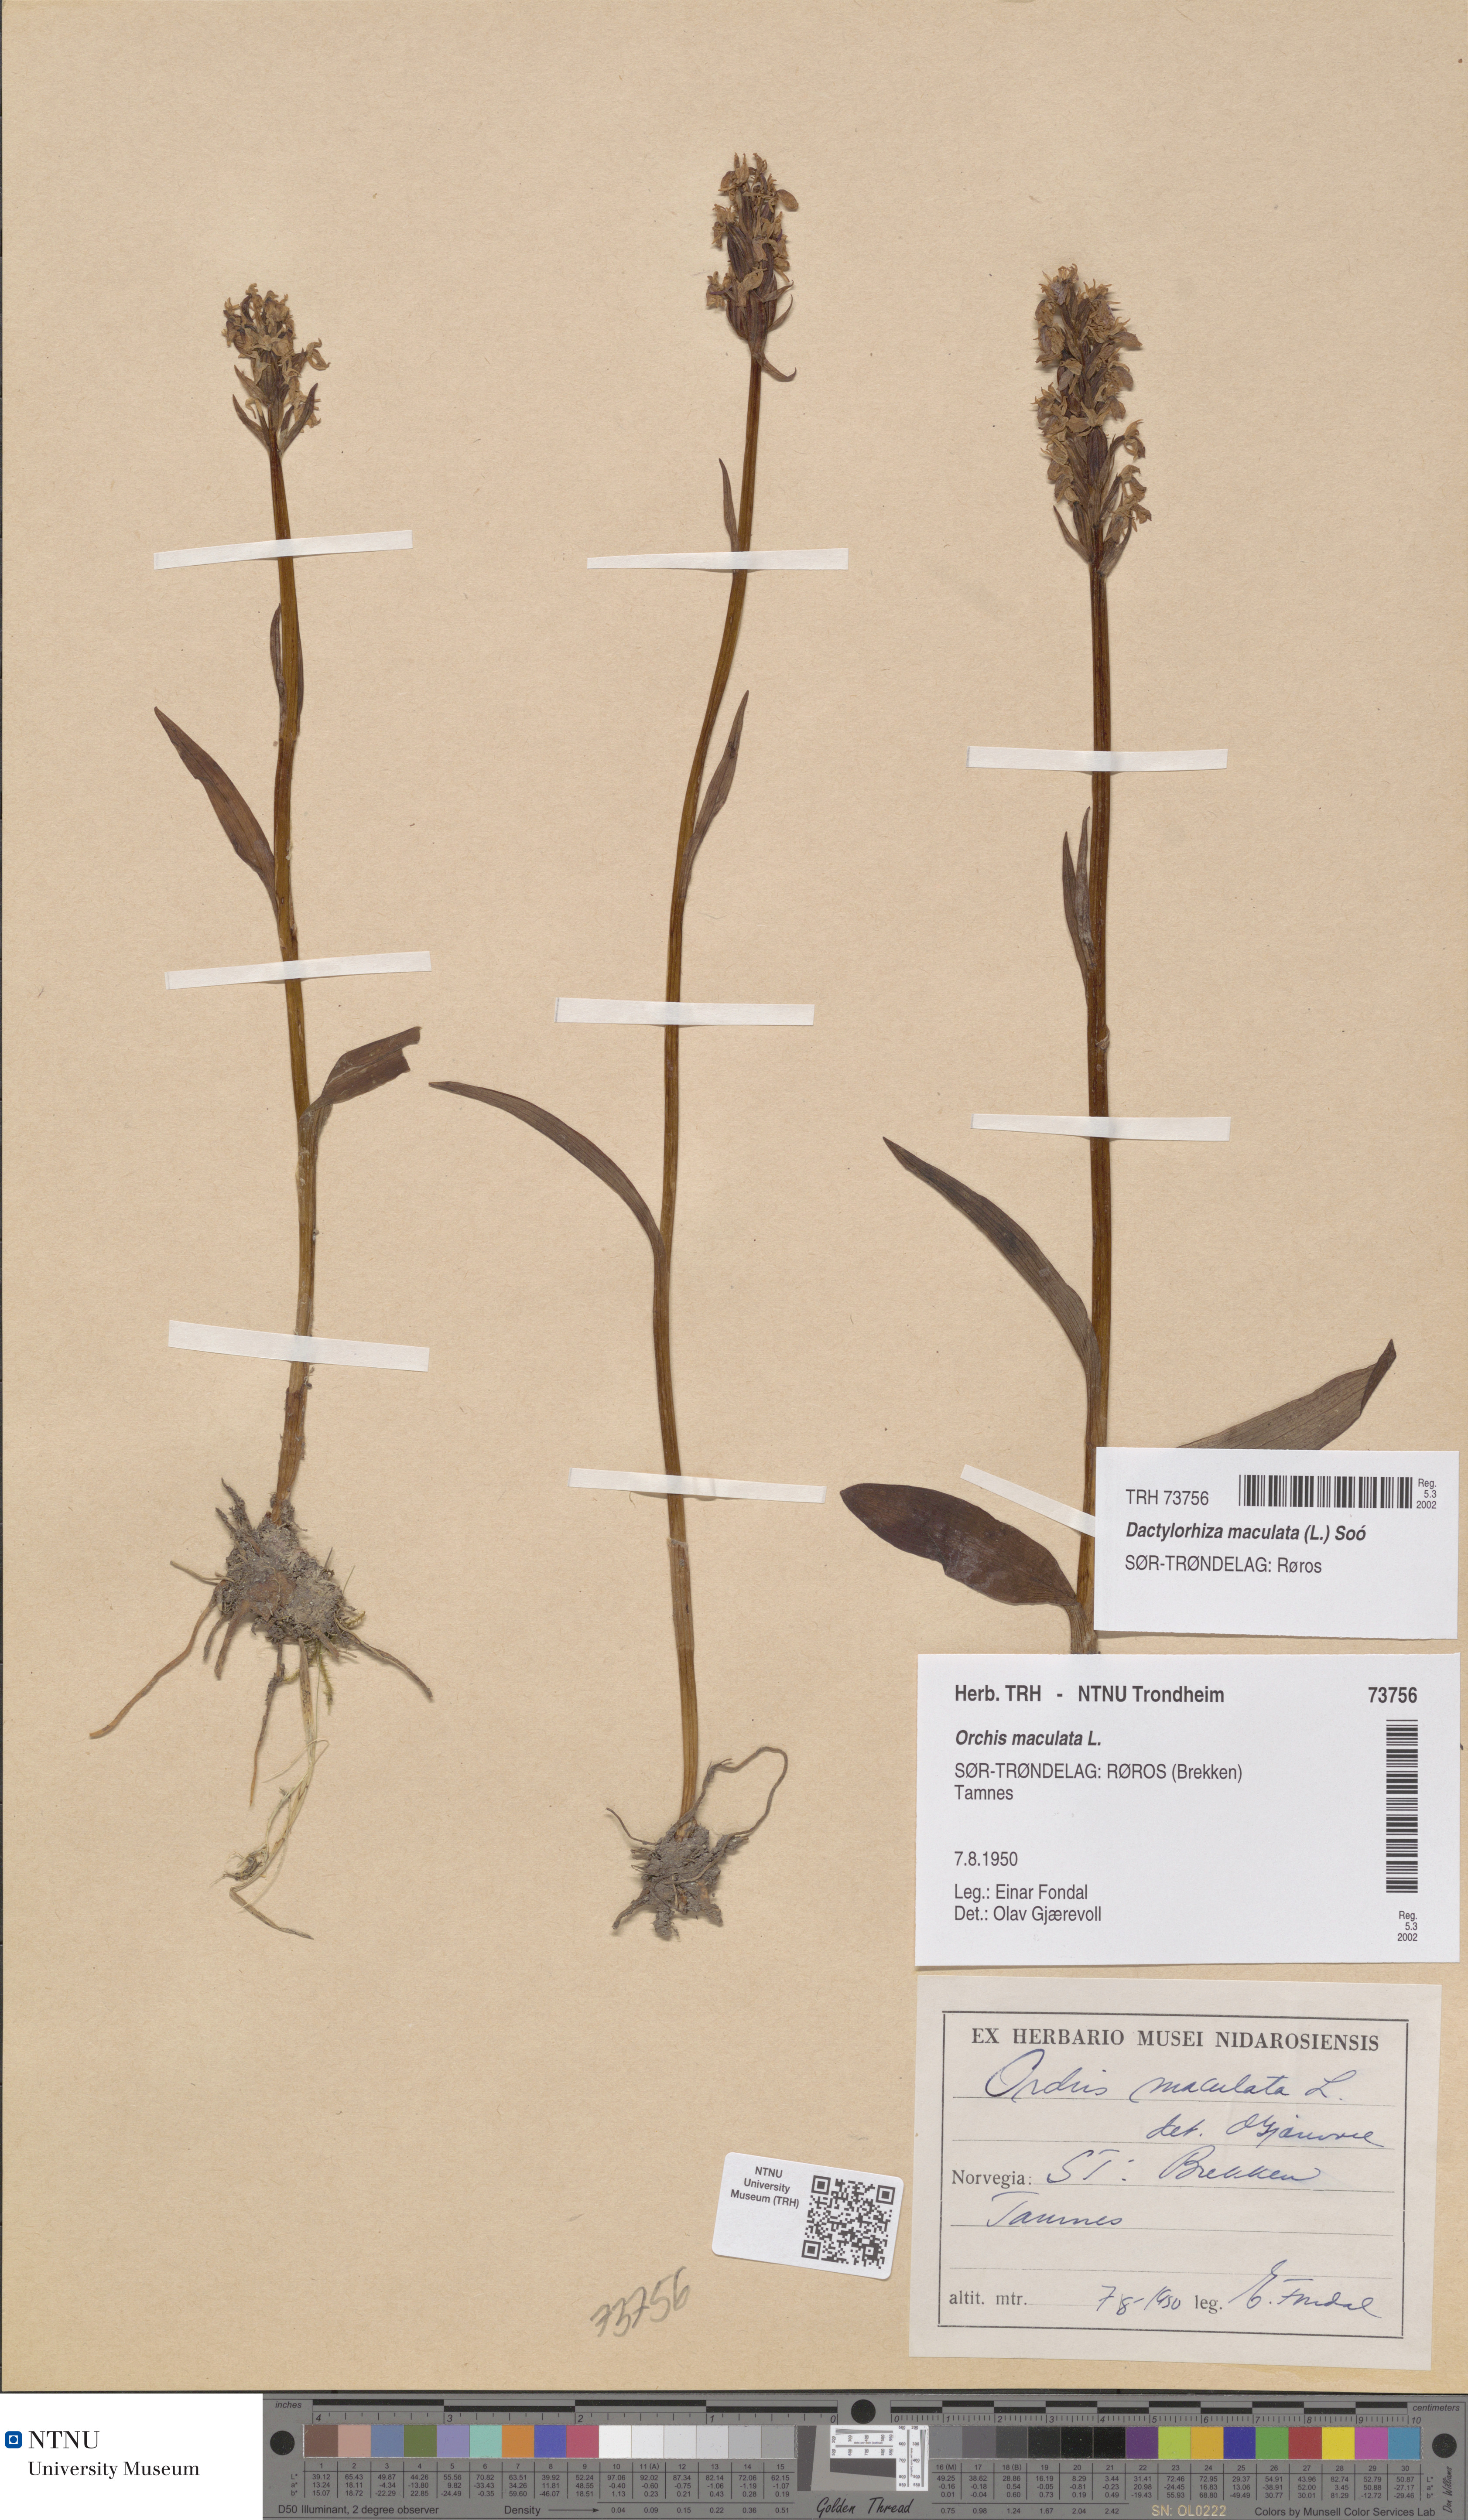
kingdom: Plantae
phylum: Tracheophyta
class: Liliopsida
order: Asparagales
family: Orchidaceae
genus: Dactylorhiza
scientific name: Dactylorhiza maculata
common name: Heath spotted-orchid
